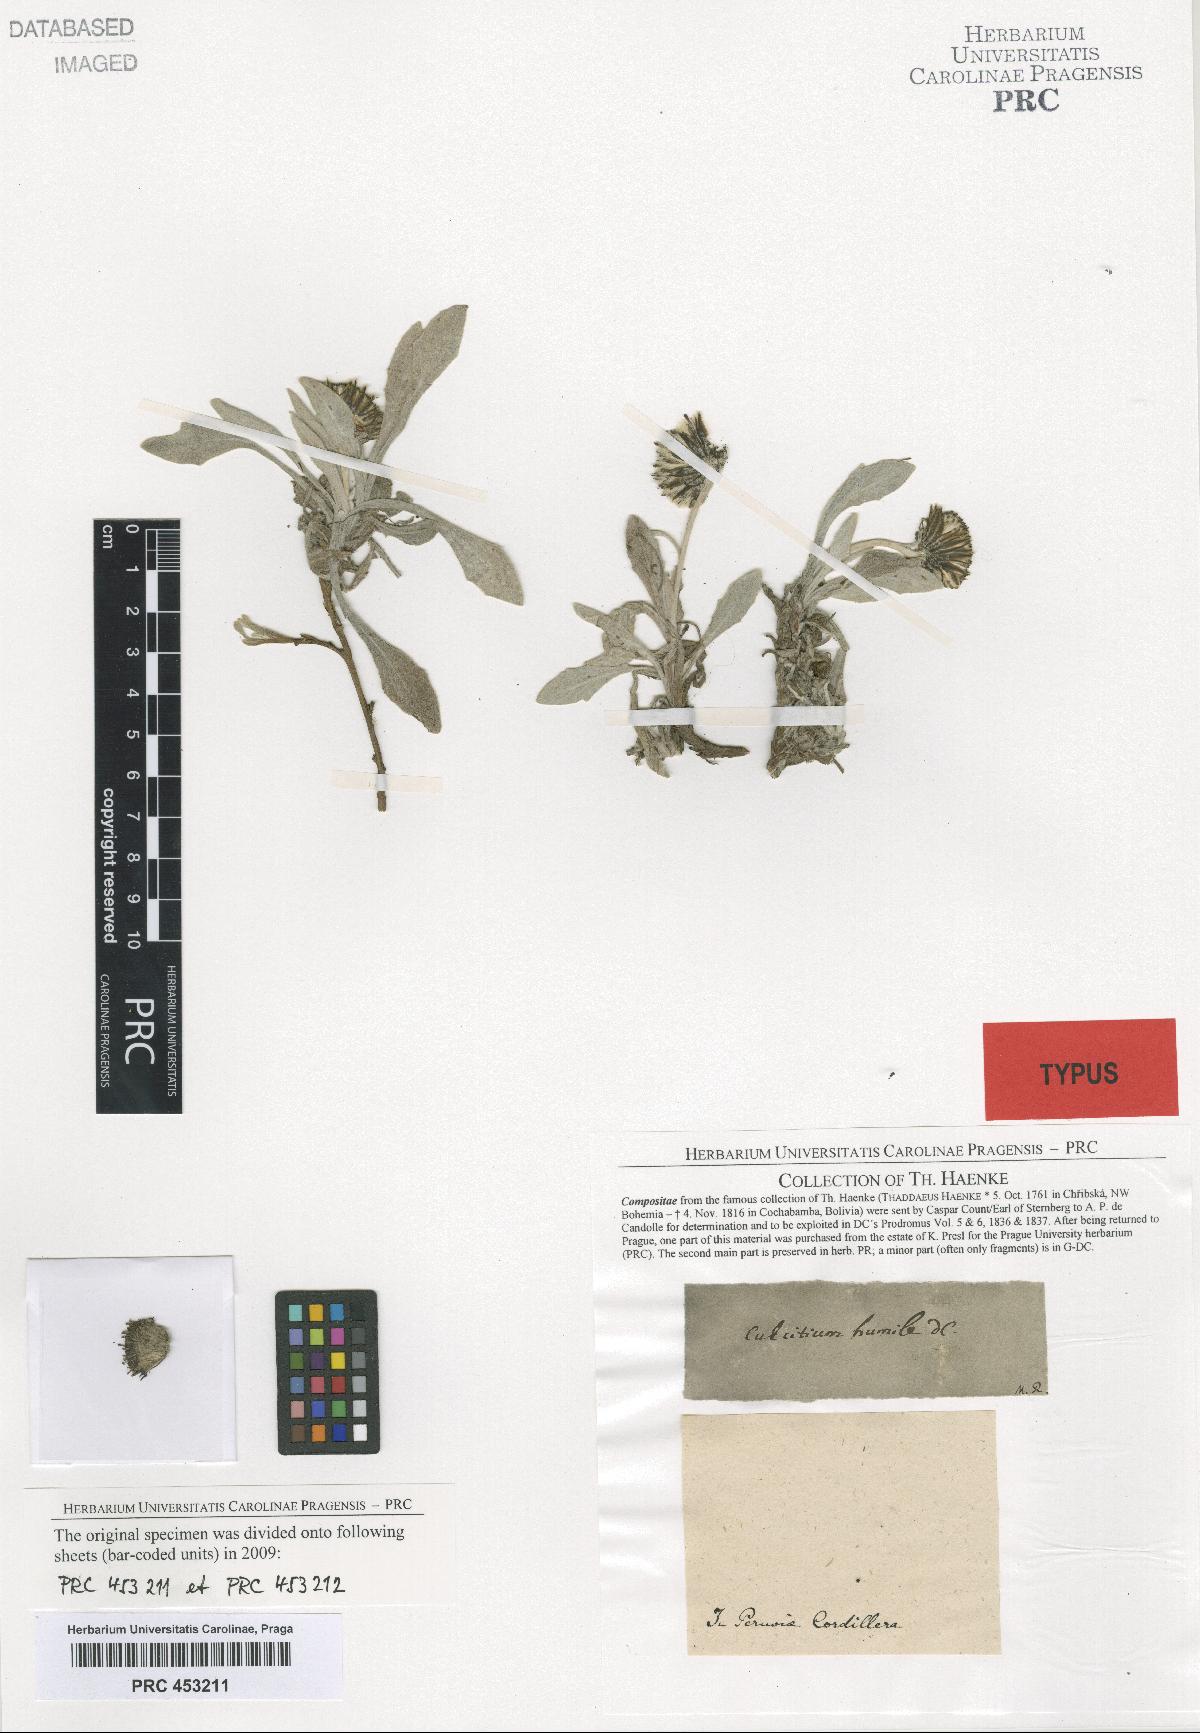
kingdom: Plantae
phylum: Tracheophyta
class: Magnoliopsida
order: Asterales
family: Asteraceae
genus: Culcitium
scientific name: Culcitium humile
